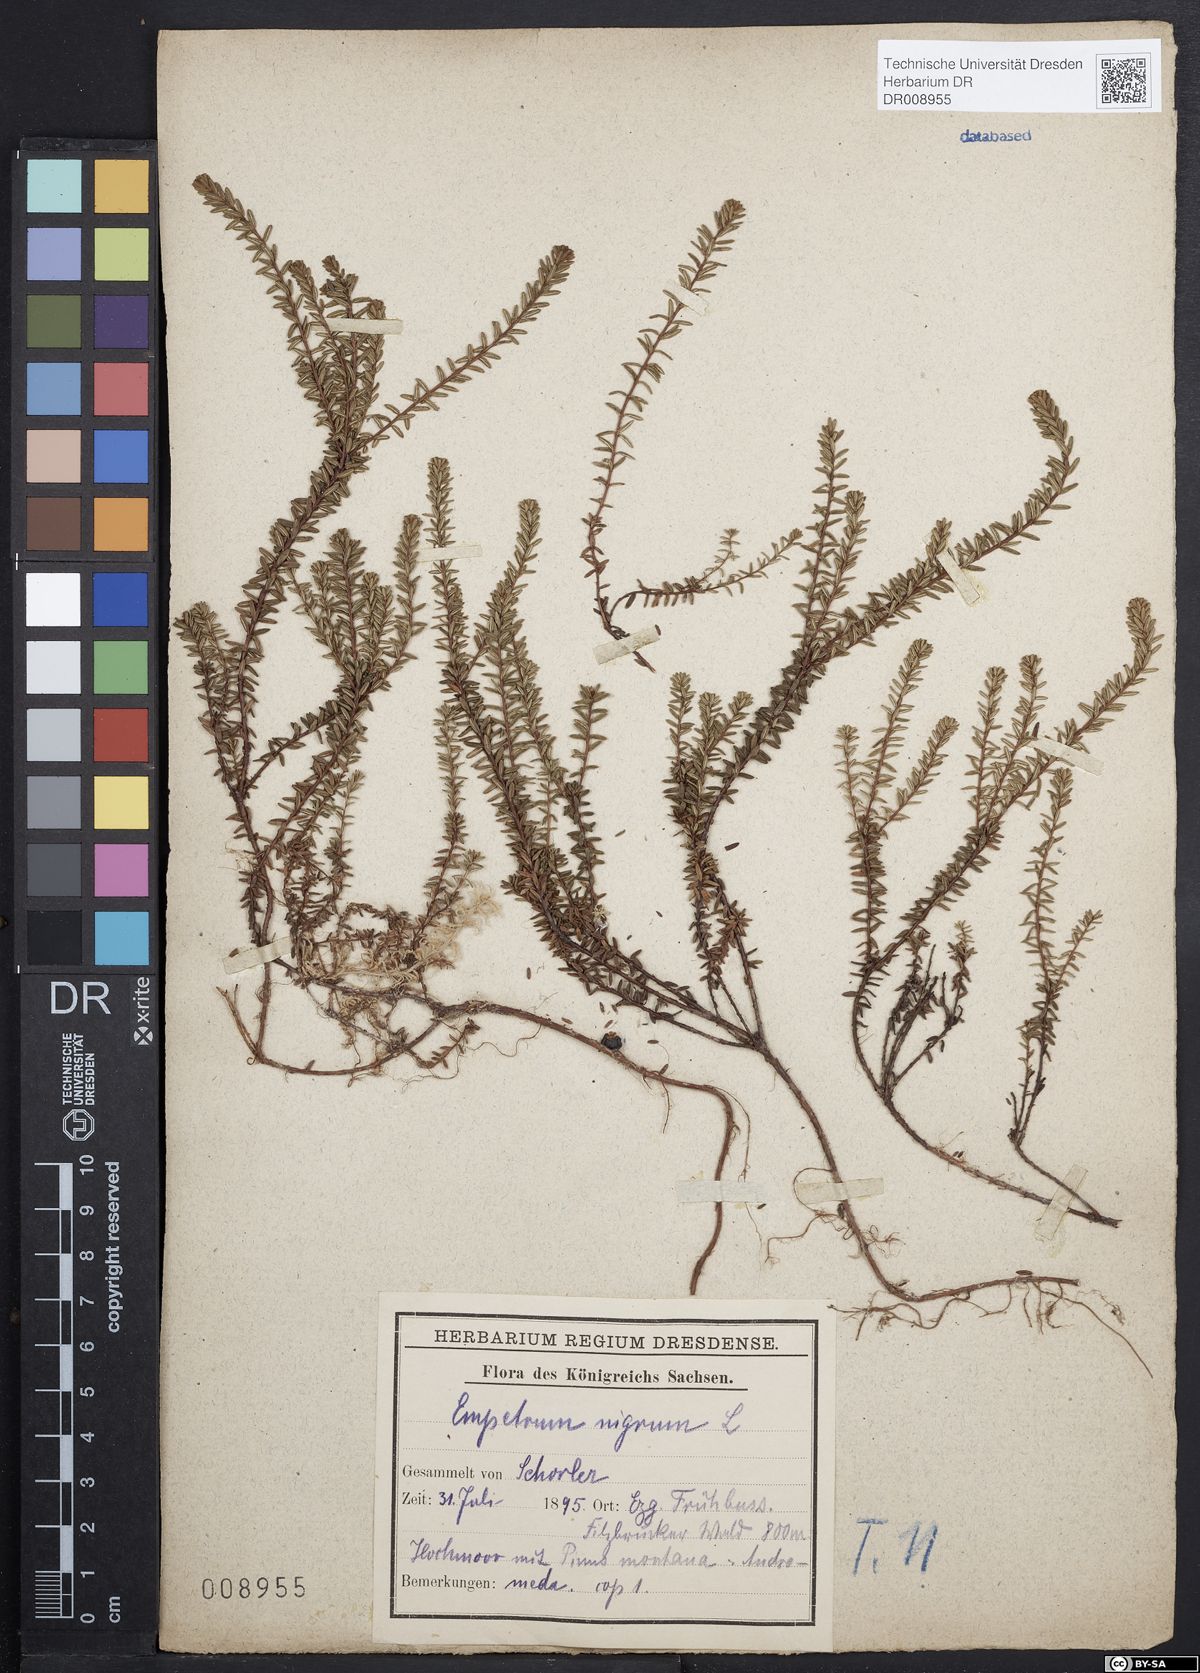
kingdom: Plantae
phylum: Tracheophyta
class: Magnoliopsida
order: Ericales
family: Ericaceae
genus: Empetrum
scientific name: Empetrum nigrum
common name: Black crowberry
